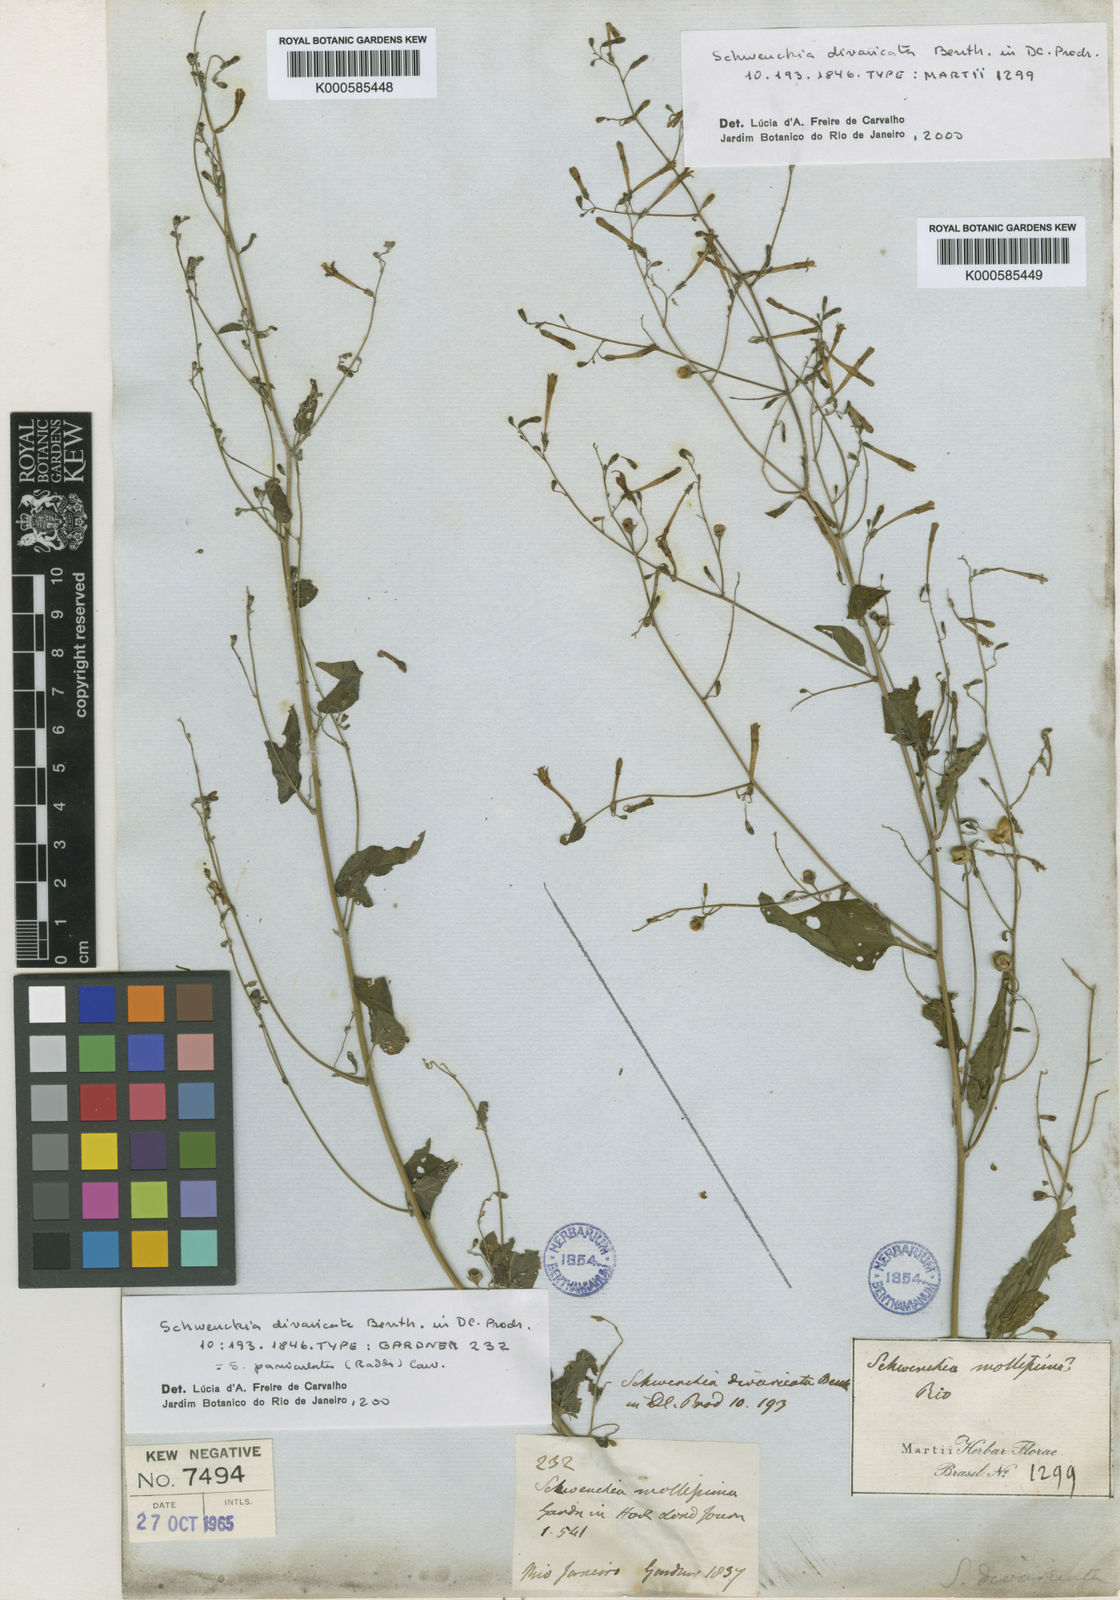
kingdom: Plantae
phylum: Tracheophyta
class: Magnoliopsida
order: Solanales
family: Solanaceae
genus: Schwenckia
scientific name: Schwenckia paniculata
